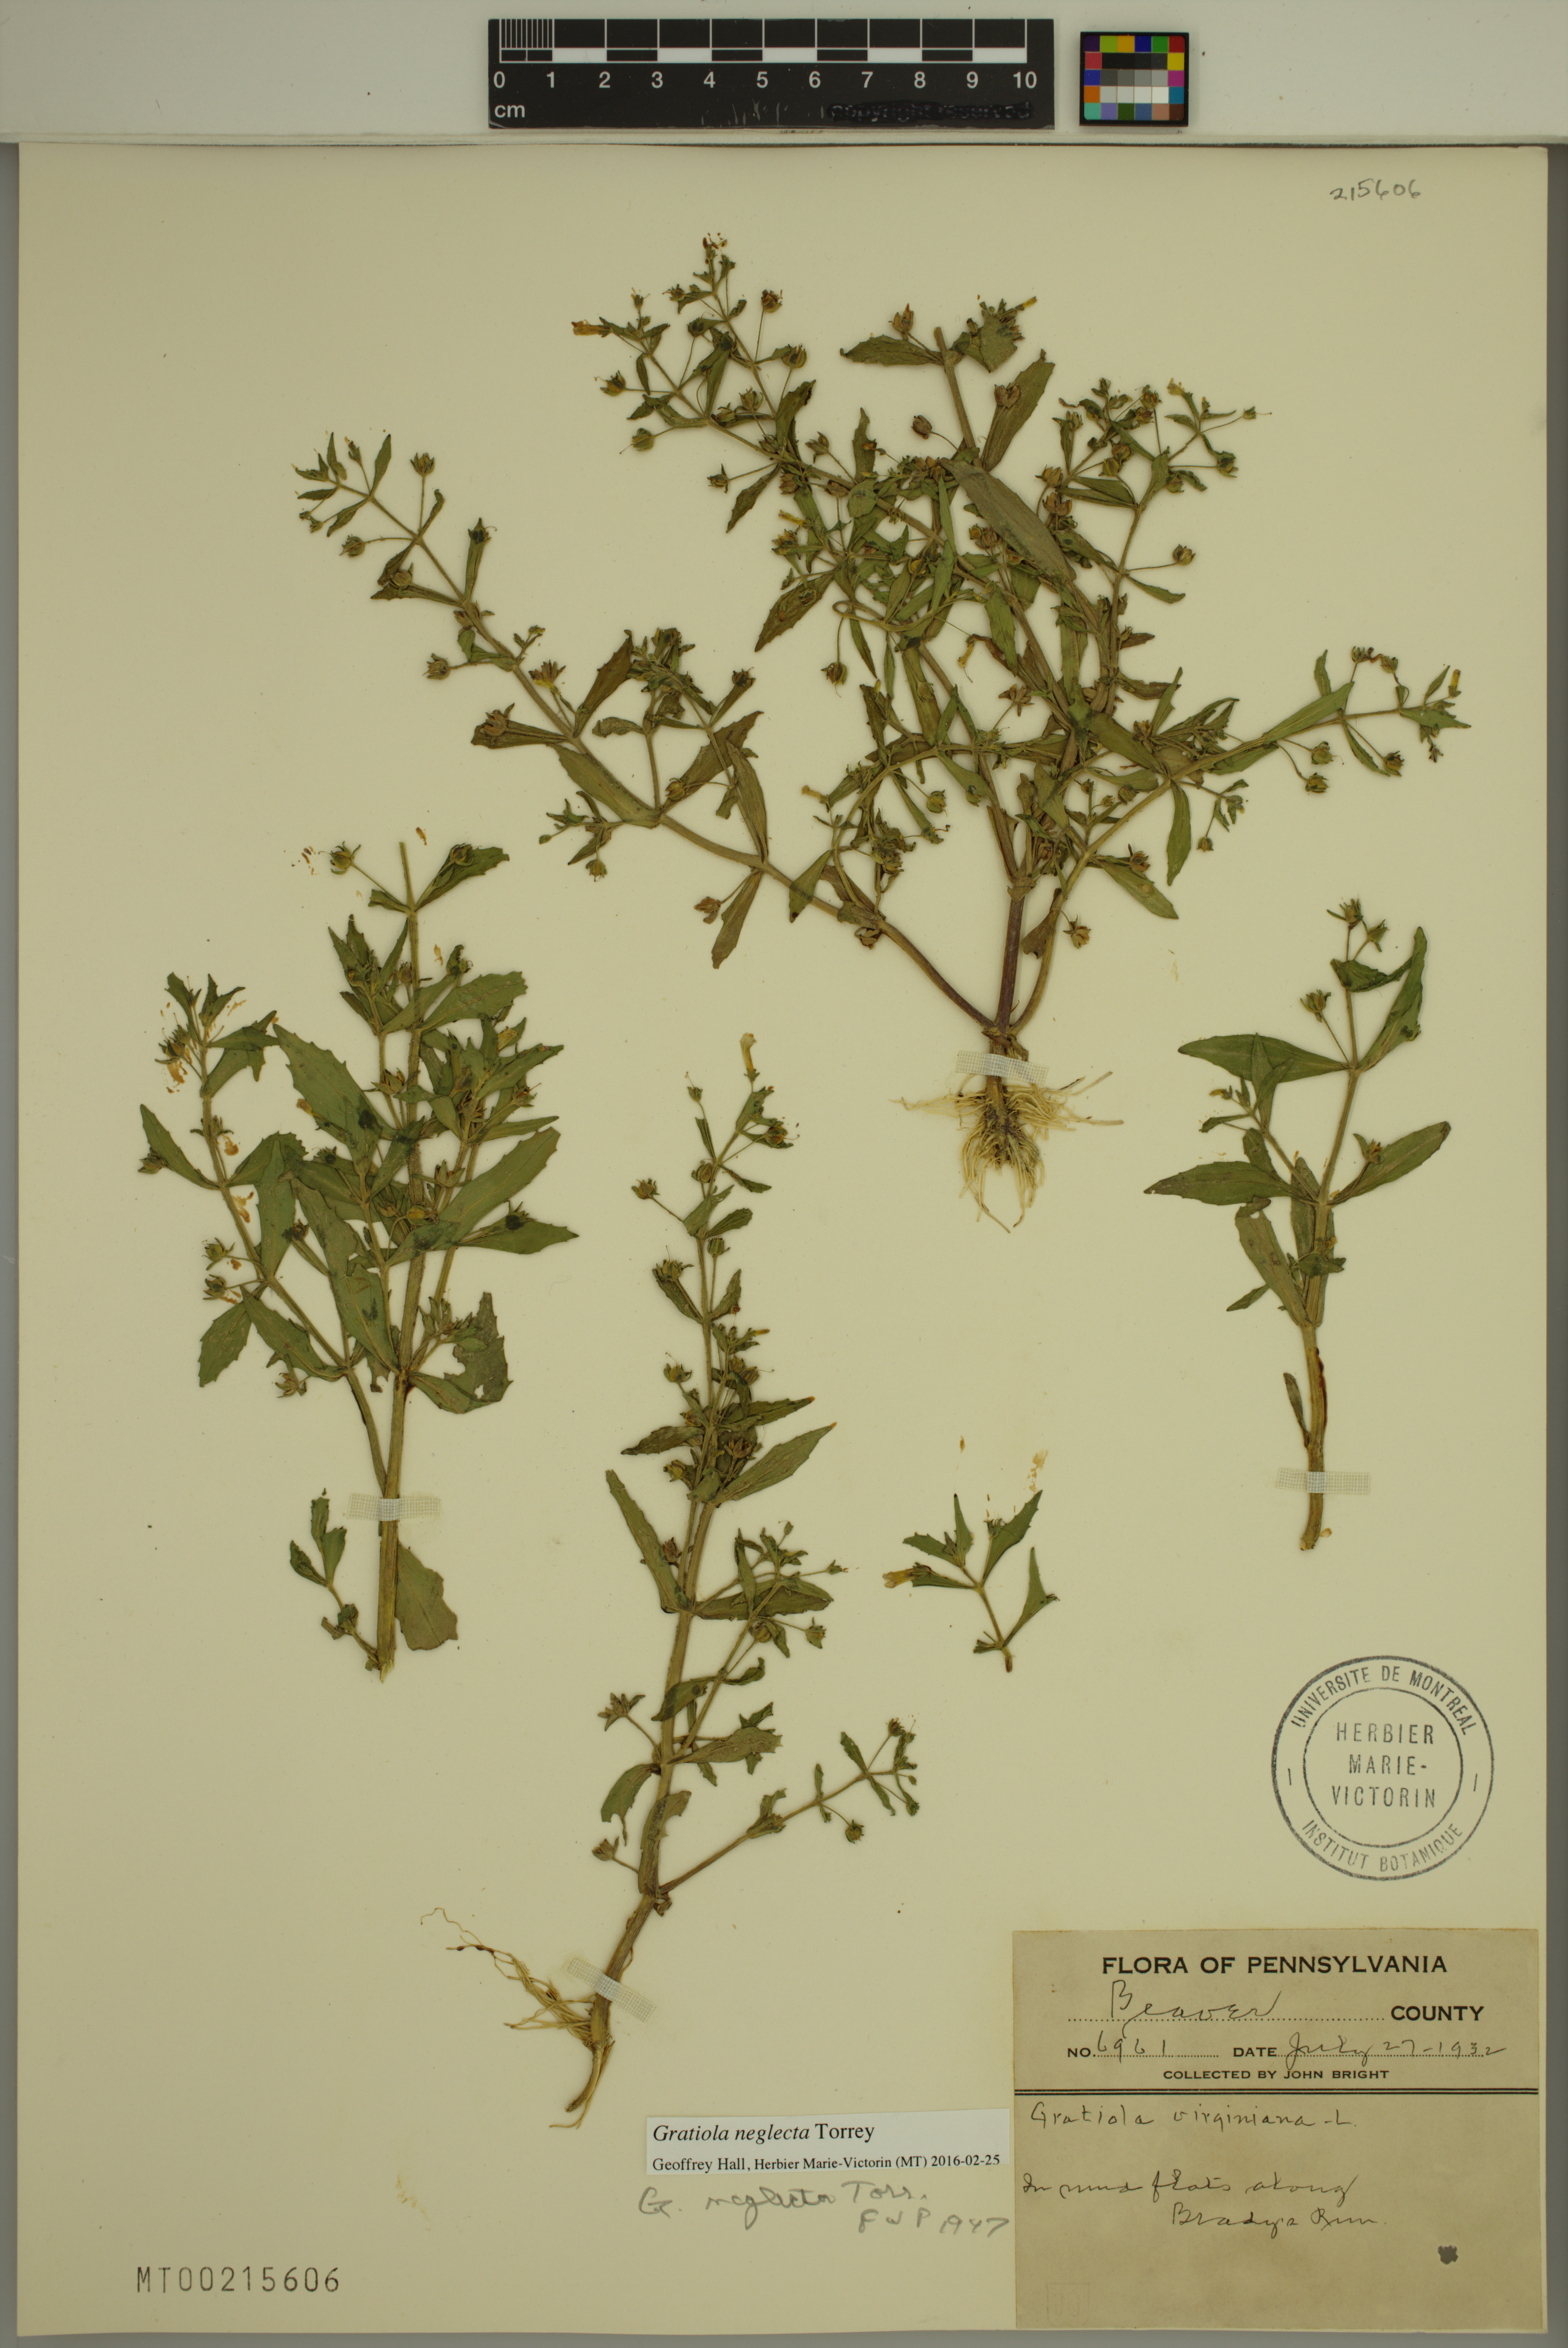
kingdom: Plantae
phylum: Tracheophyta
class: Magnoliopsida
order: Lamiales
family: Plantaginaceae
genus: Gratiola
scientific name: Gratiola neglecta
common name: American hedge-hyssop
